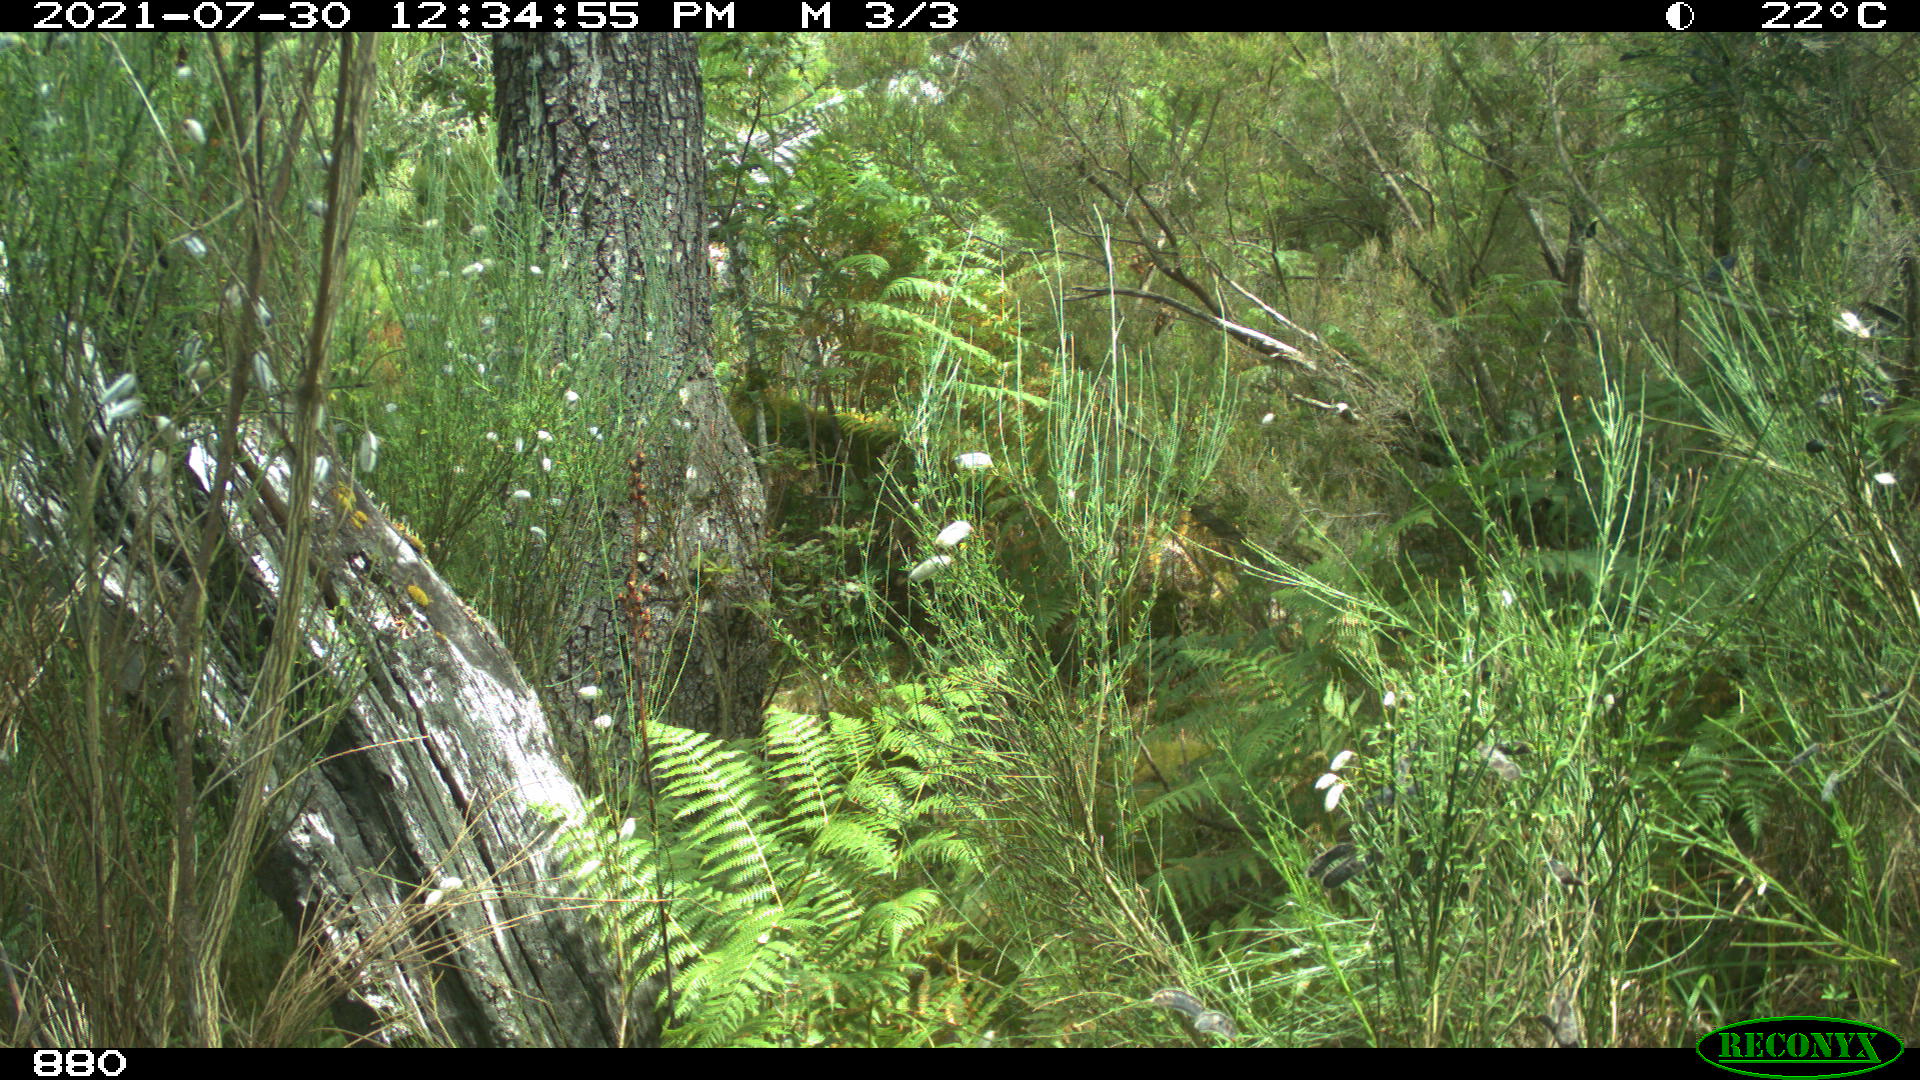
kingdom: Animalia
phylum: Chordata
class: Mammalia
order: Artiodactyla
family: Suidae
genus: Sus
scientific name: Sus scrofa
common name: Wild boar
